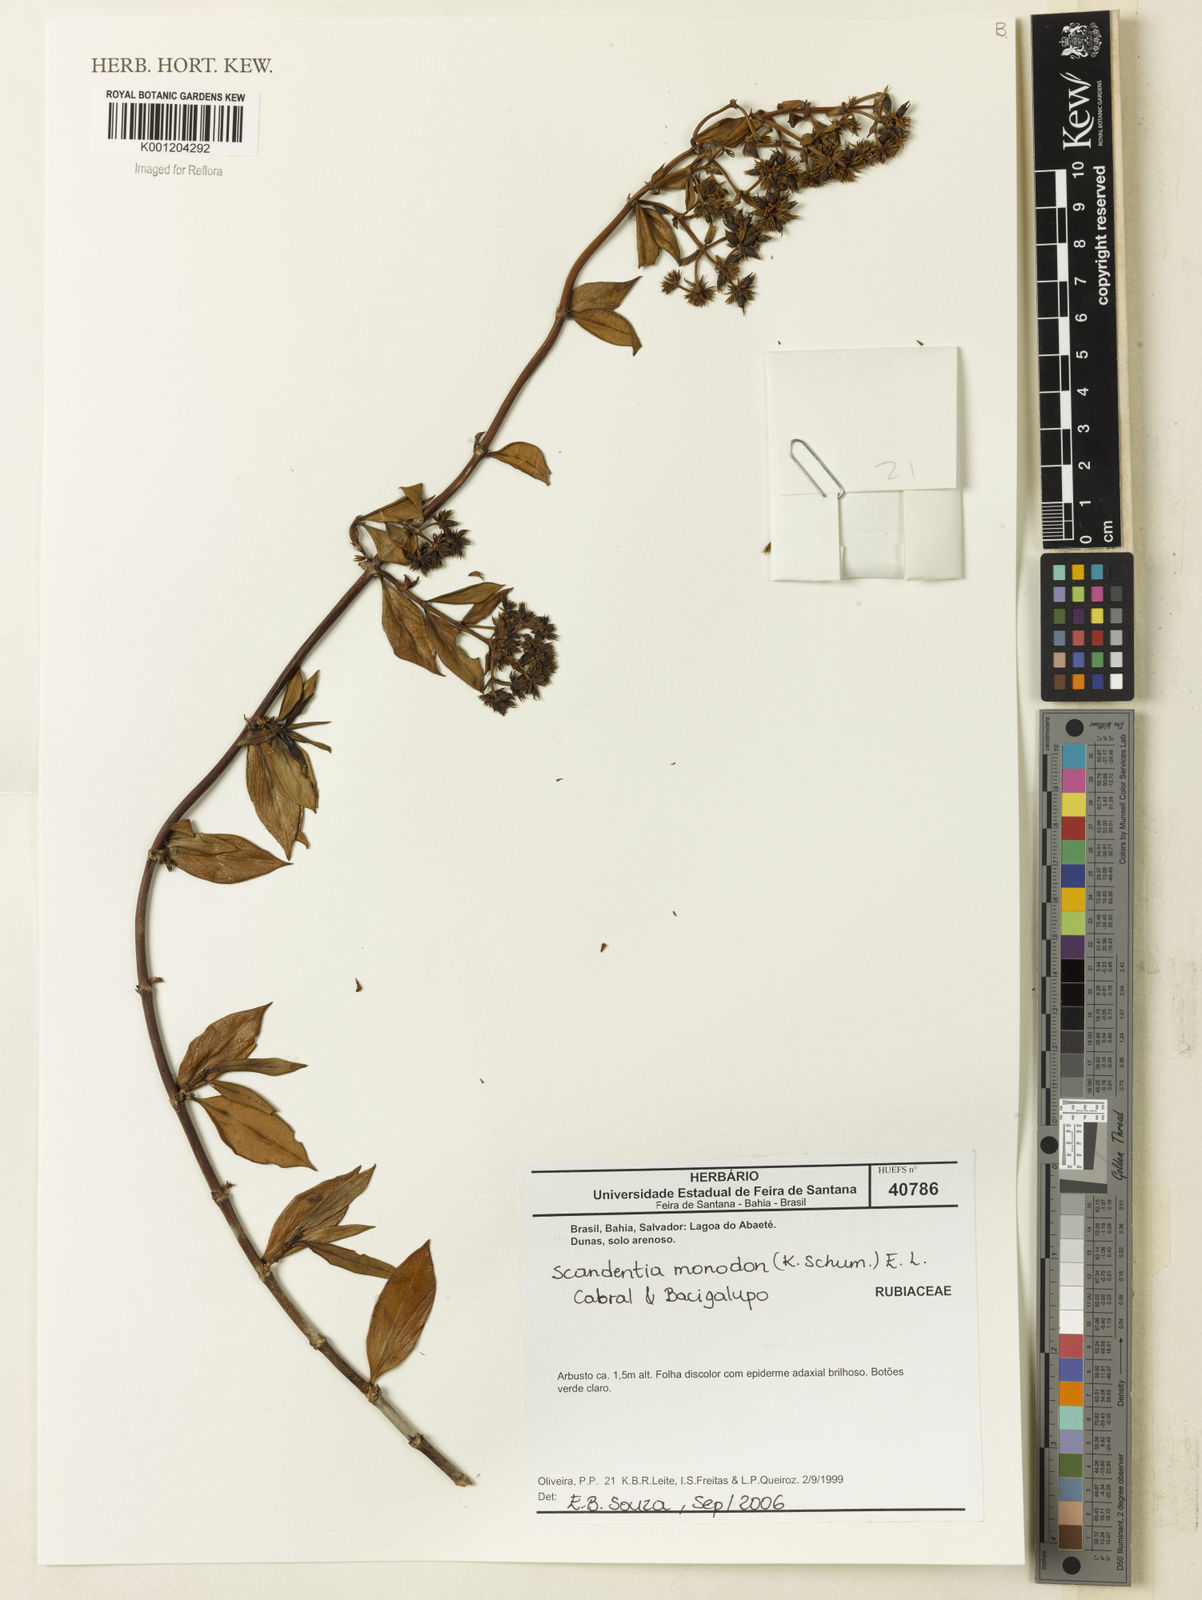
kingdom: Plantae
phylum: Tracheophyta
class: Magnoliopsida
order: Gentianales
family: Rubiaceae
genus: Denscantia
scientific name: Denscantia monodon
